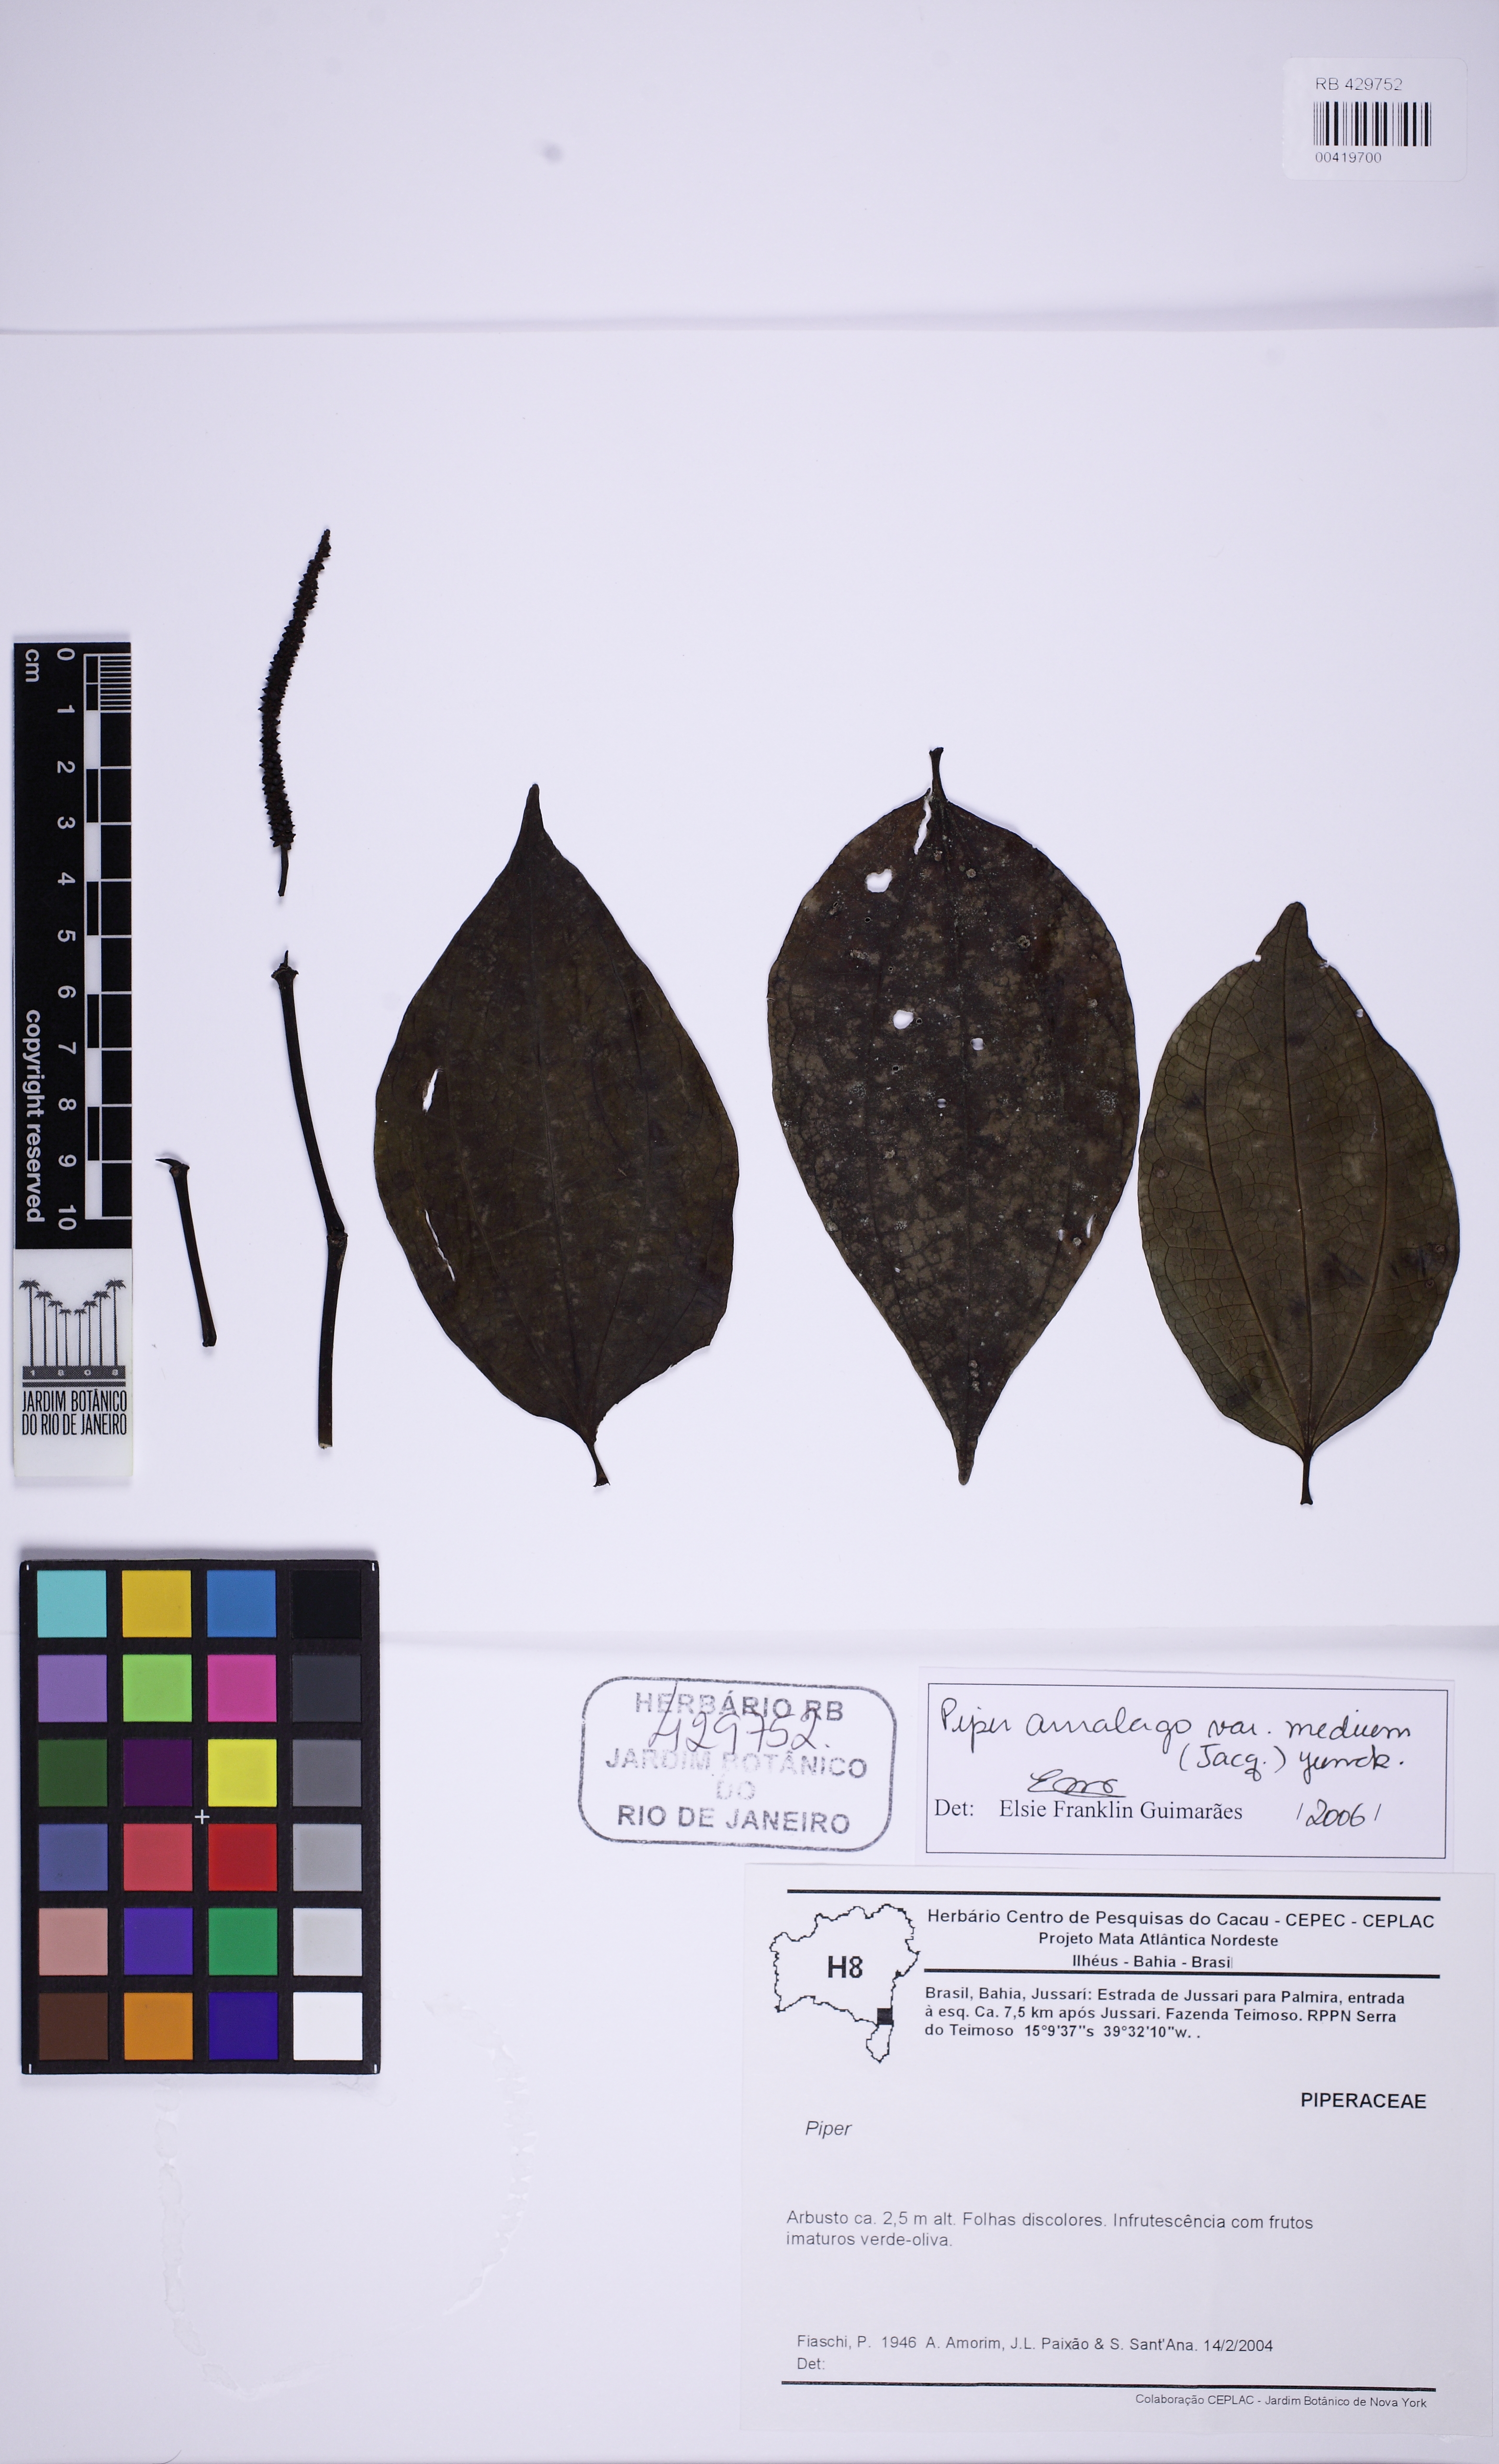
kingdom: Plantae
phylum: Tracheophyta
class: Magnoliopsida
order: Piperales
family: Piperaceae
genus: Piper
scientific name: Piper amalago
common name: Pepper-elder
